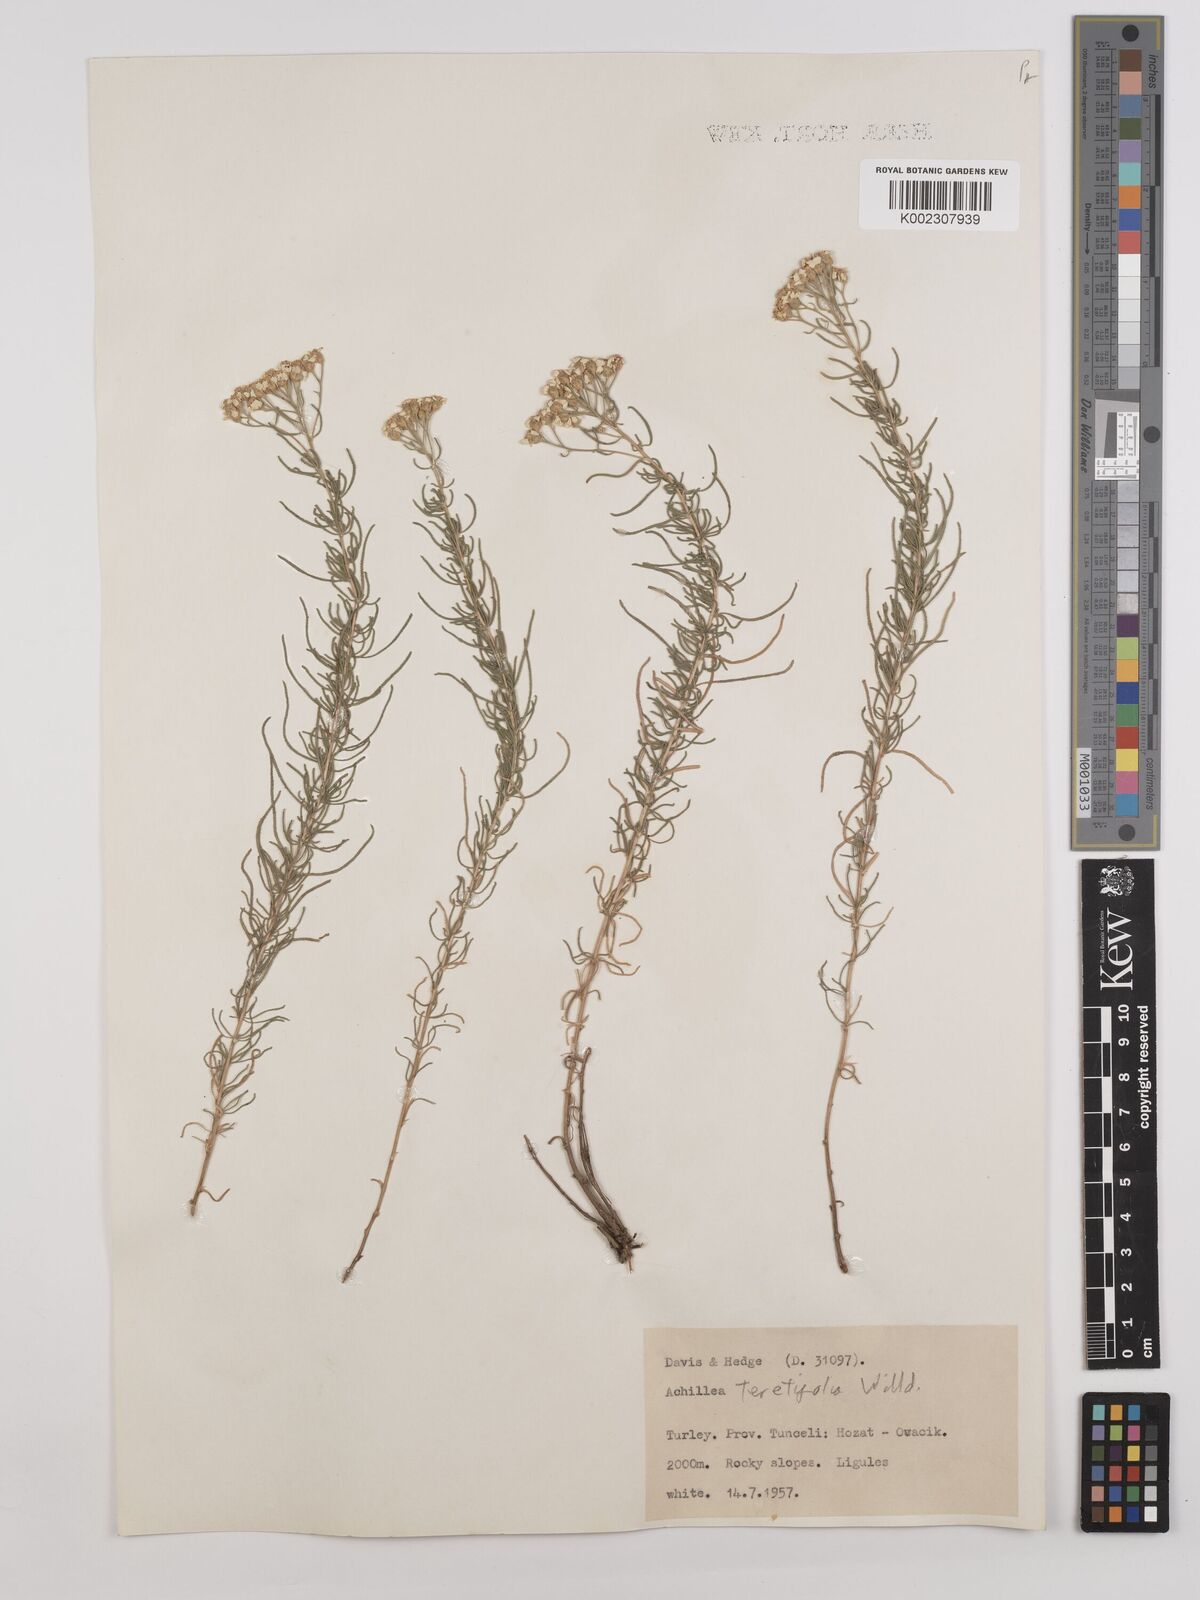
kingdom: Plantae
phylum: Tracheophyta
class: Magnoliopsida
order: Asterales
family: Asteraceae
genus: Achillea
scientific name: Achillea wilhelmsii
